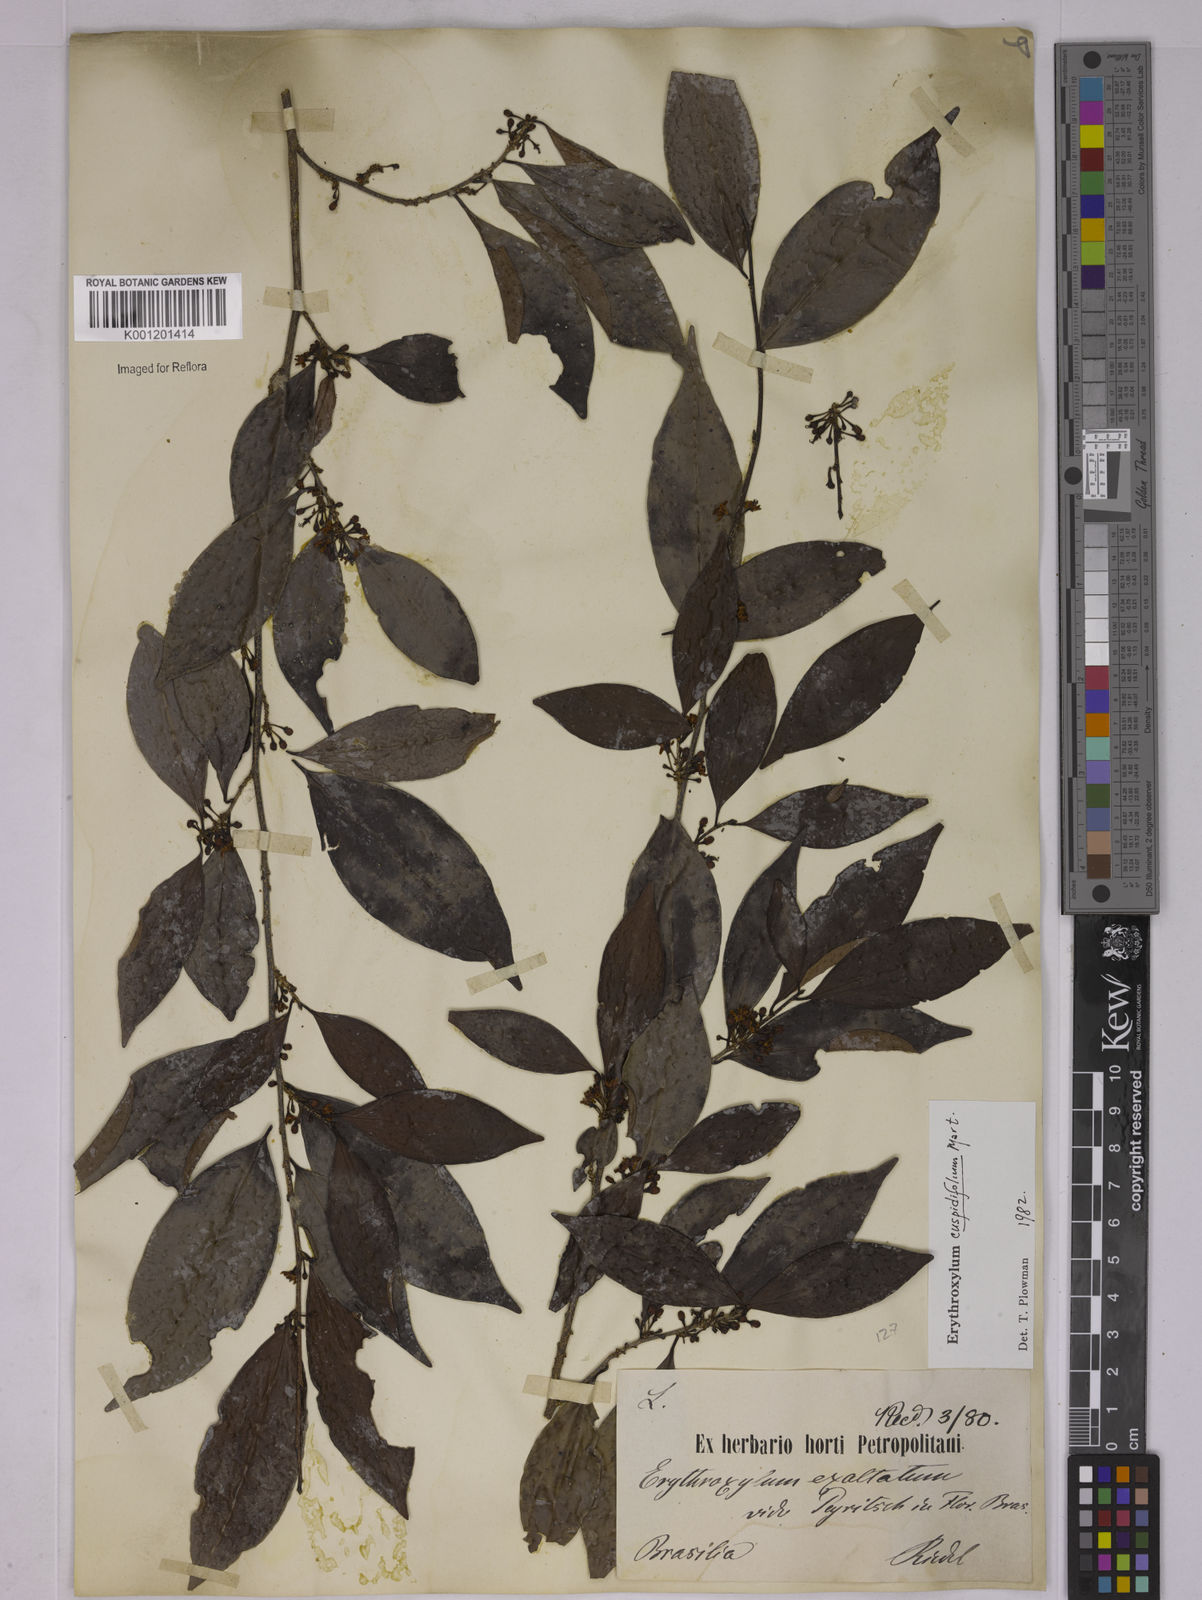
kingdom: Plantae
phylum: Tracheophyta
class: Magnoliopsida
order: Malpighiales
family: Erythroxylaceae
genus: Erythroxylum
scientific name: Erythroxylum cuspidifolium
